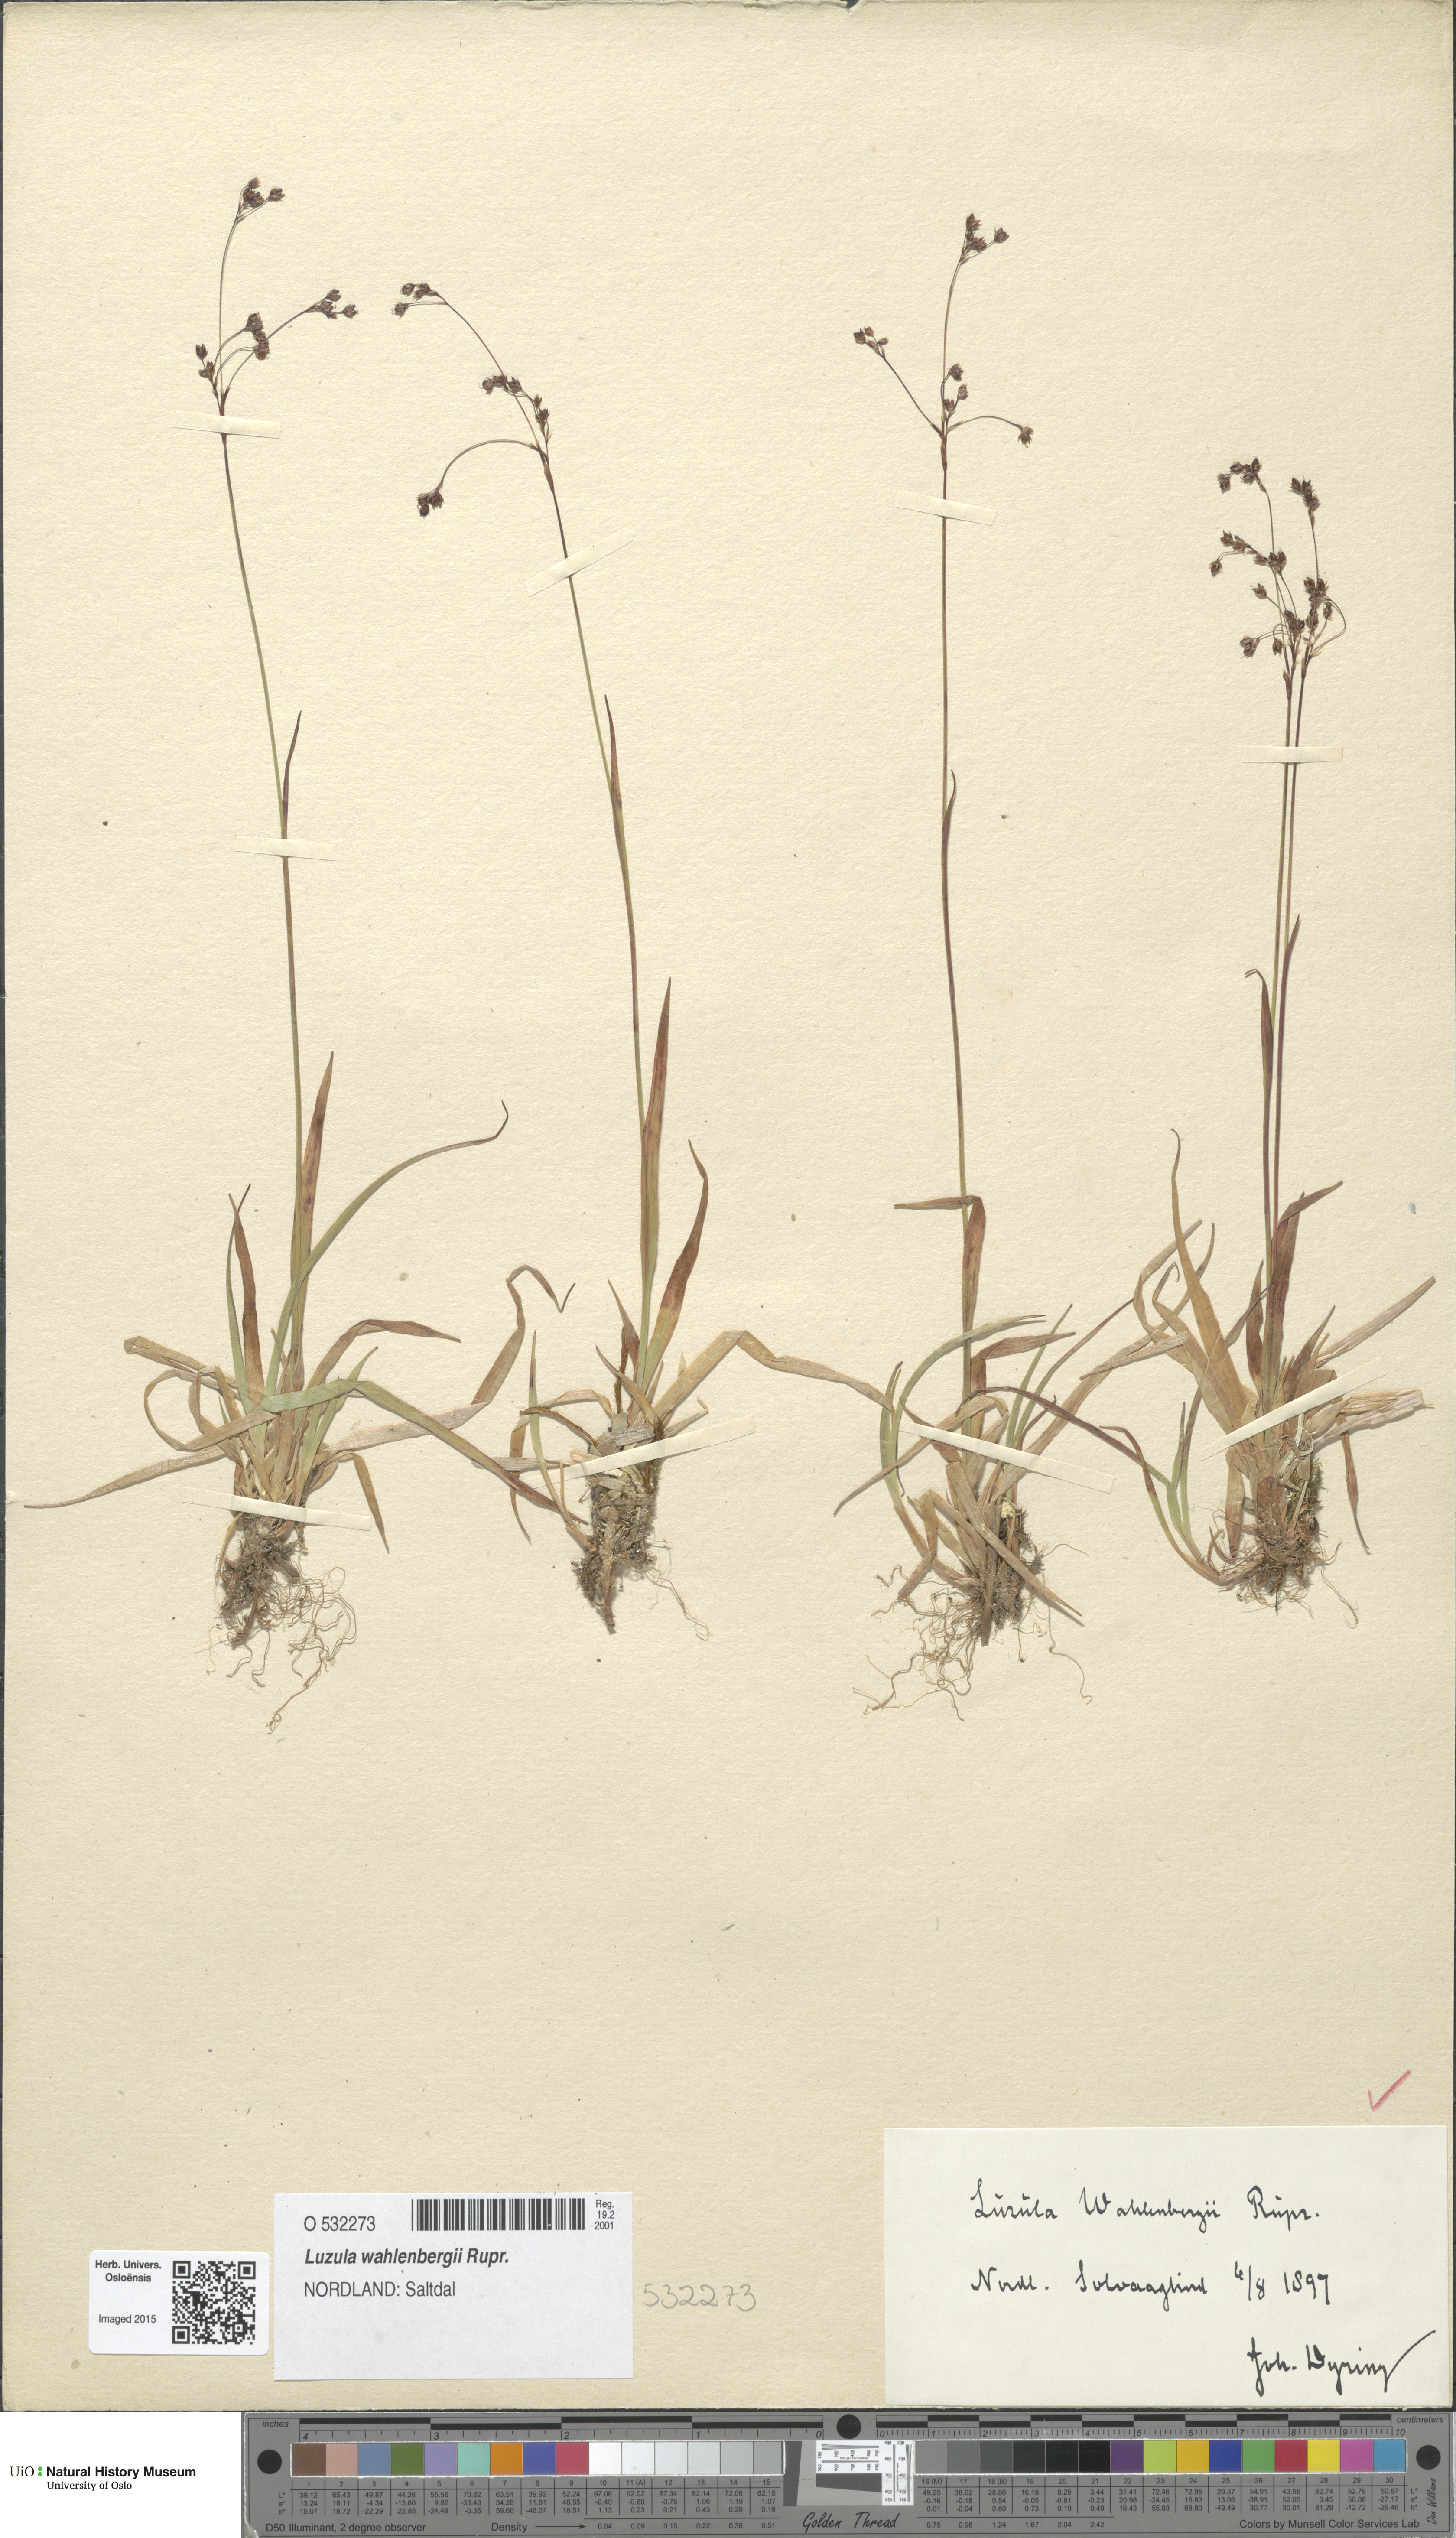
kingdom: Plantae
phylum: Tracheophyta
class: Liliopsida
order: Poales
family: Juncaceae
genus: Luzula
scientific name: Luzula wahlenbergii
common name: Wahlenberg's wood-rush
